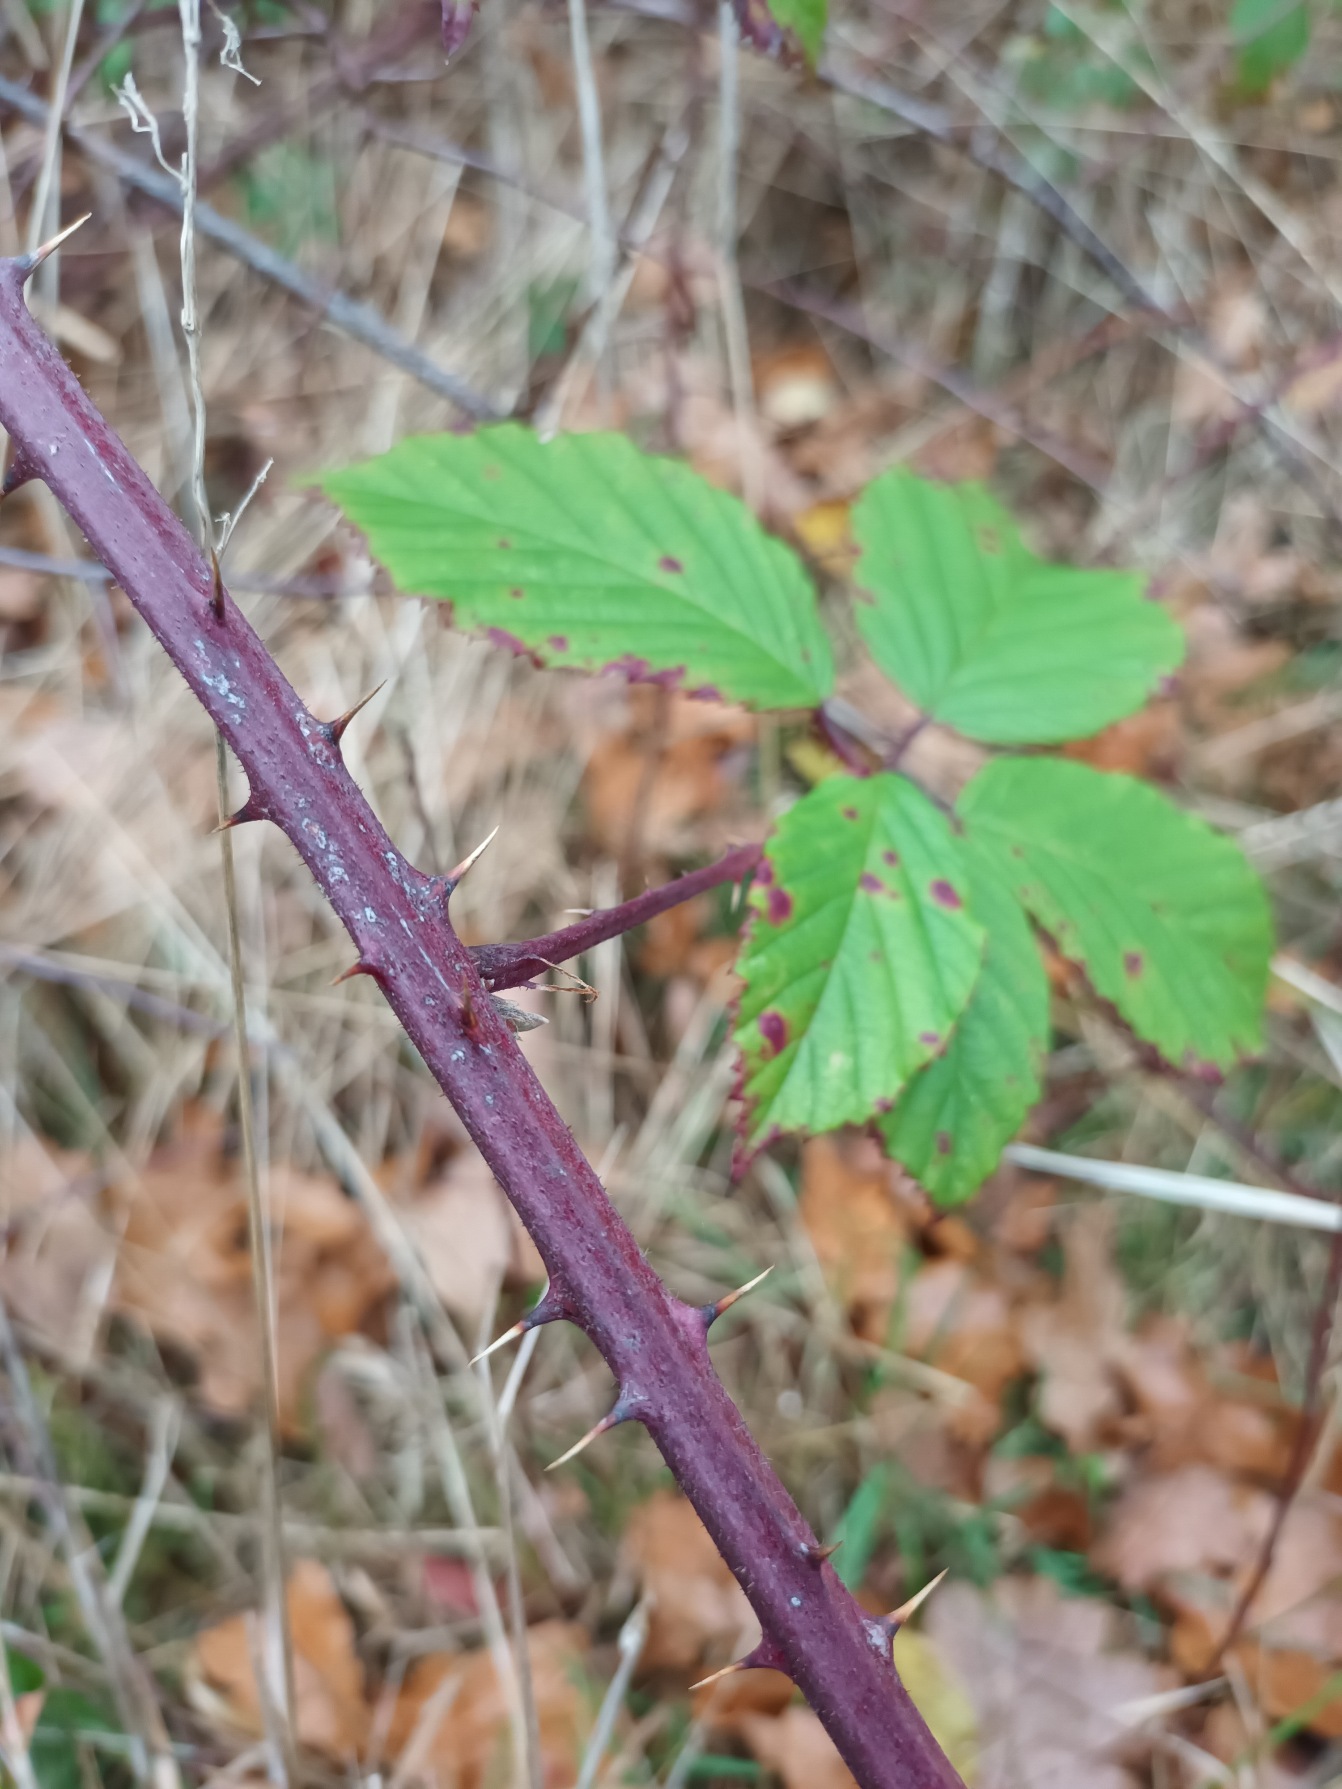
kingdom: Plantae
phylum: Tracheophyta
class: Magnoliopsida
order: Rosales
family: Rosaceae
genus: Rubus
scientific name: Rubus radula
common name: Rasperu brombær
